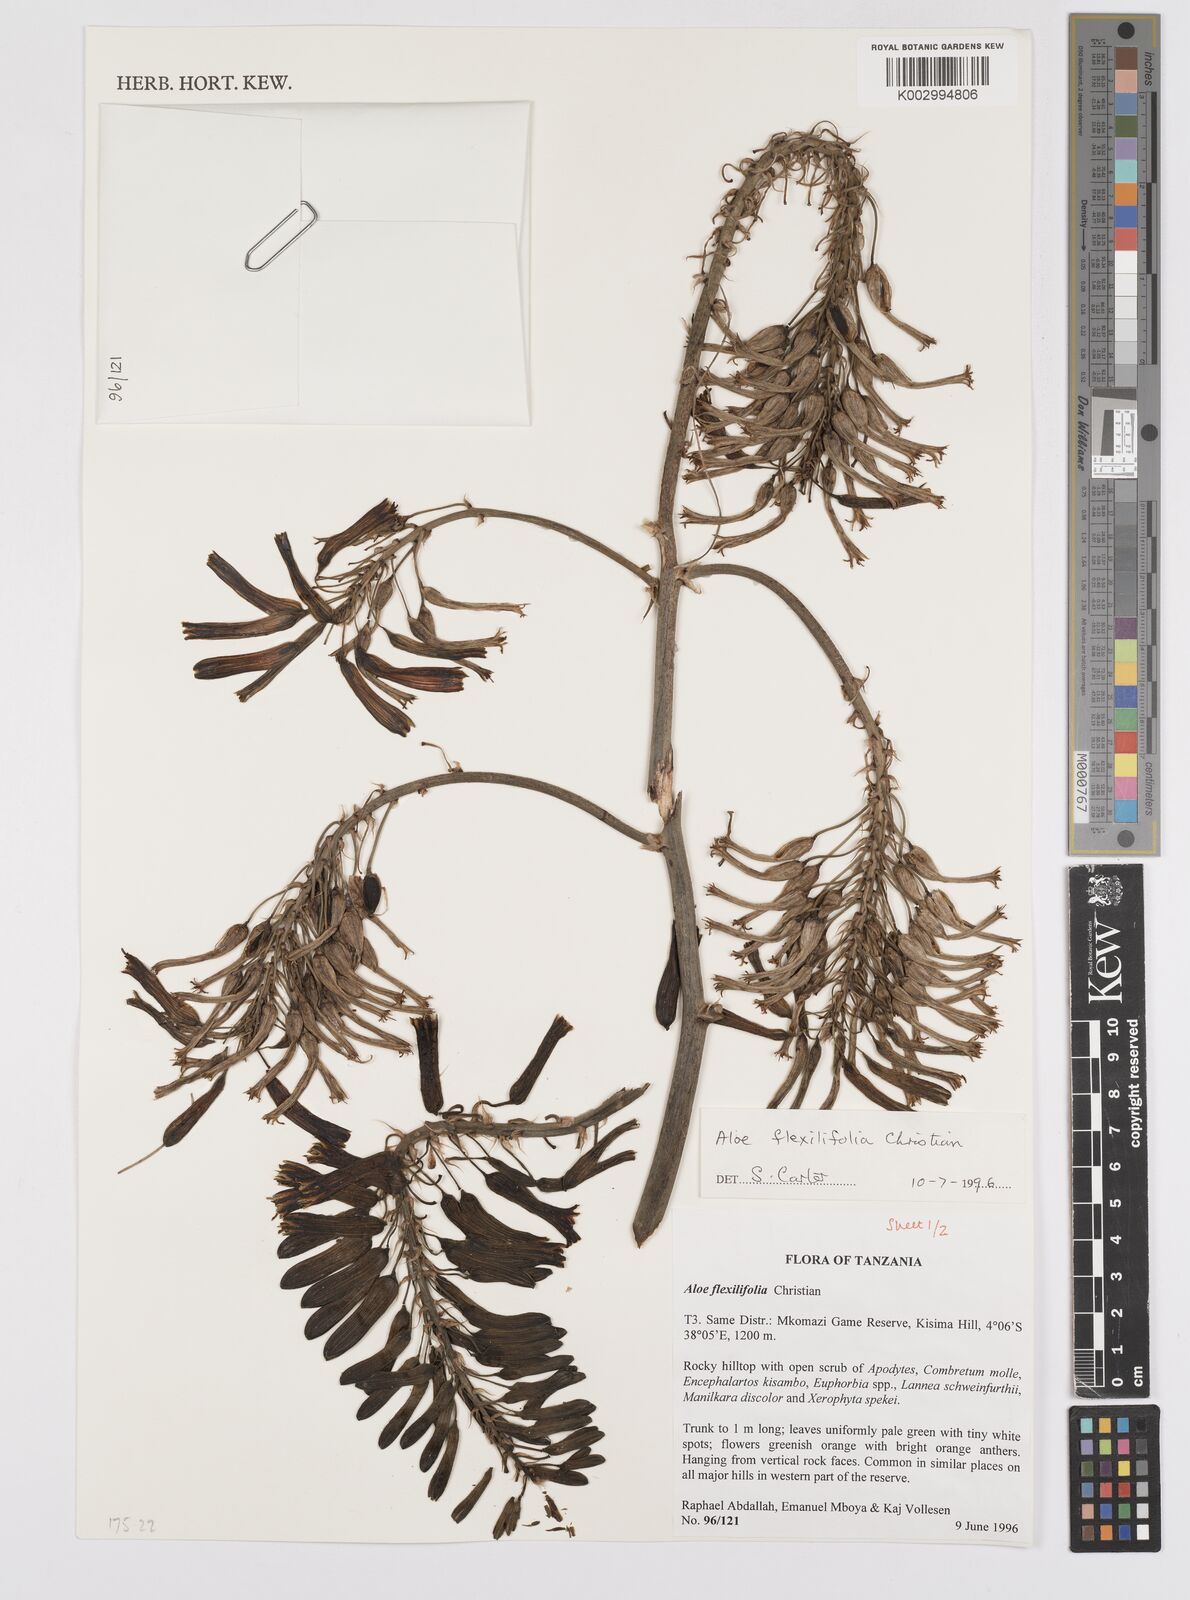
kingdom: Plantae
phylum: Tracheophyta
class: Liliopsida
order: Asparagales
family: Asphodelaceae
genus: Aloe
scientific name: Aloe flexilifolia
